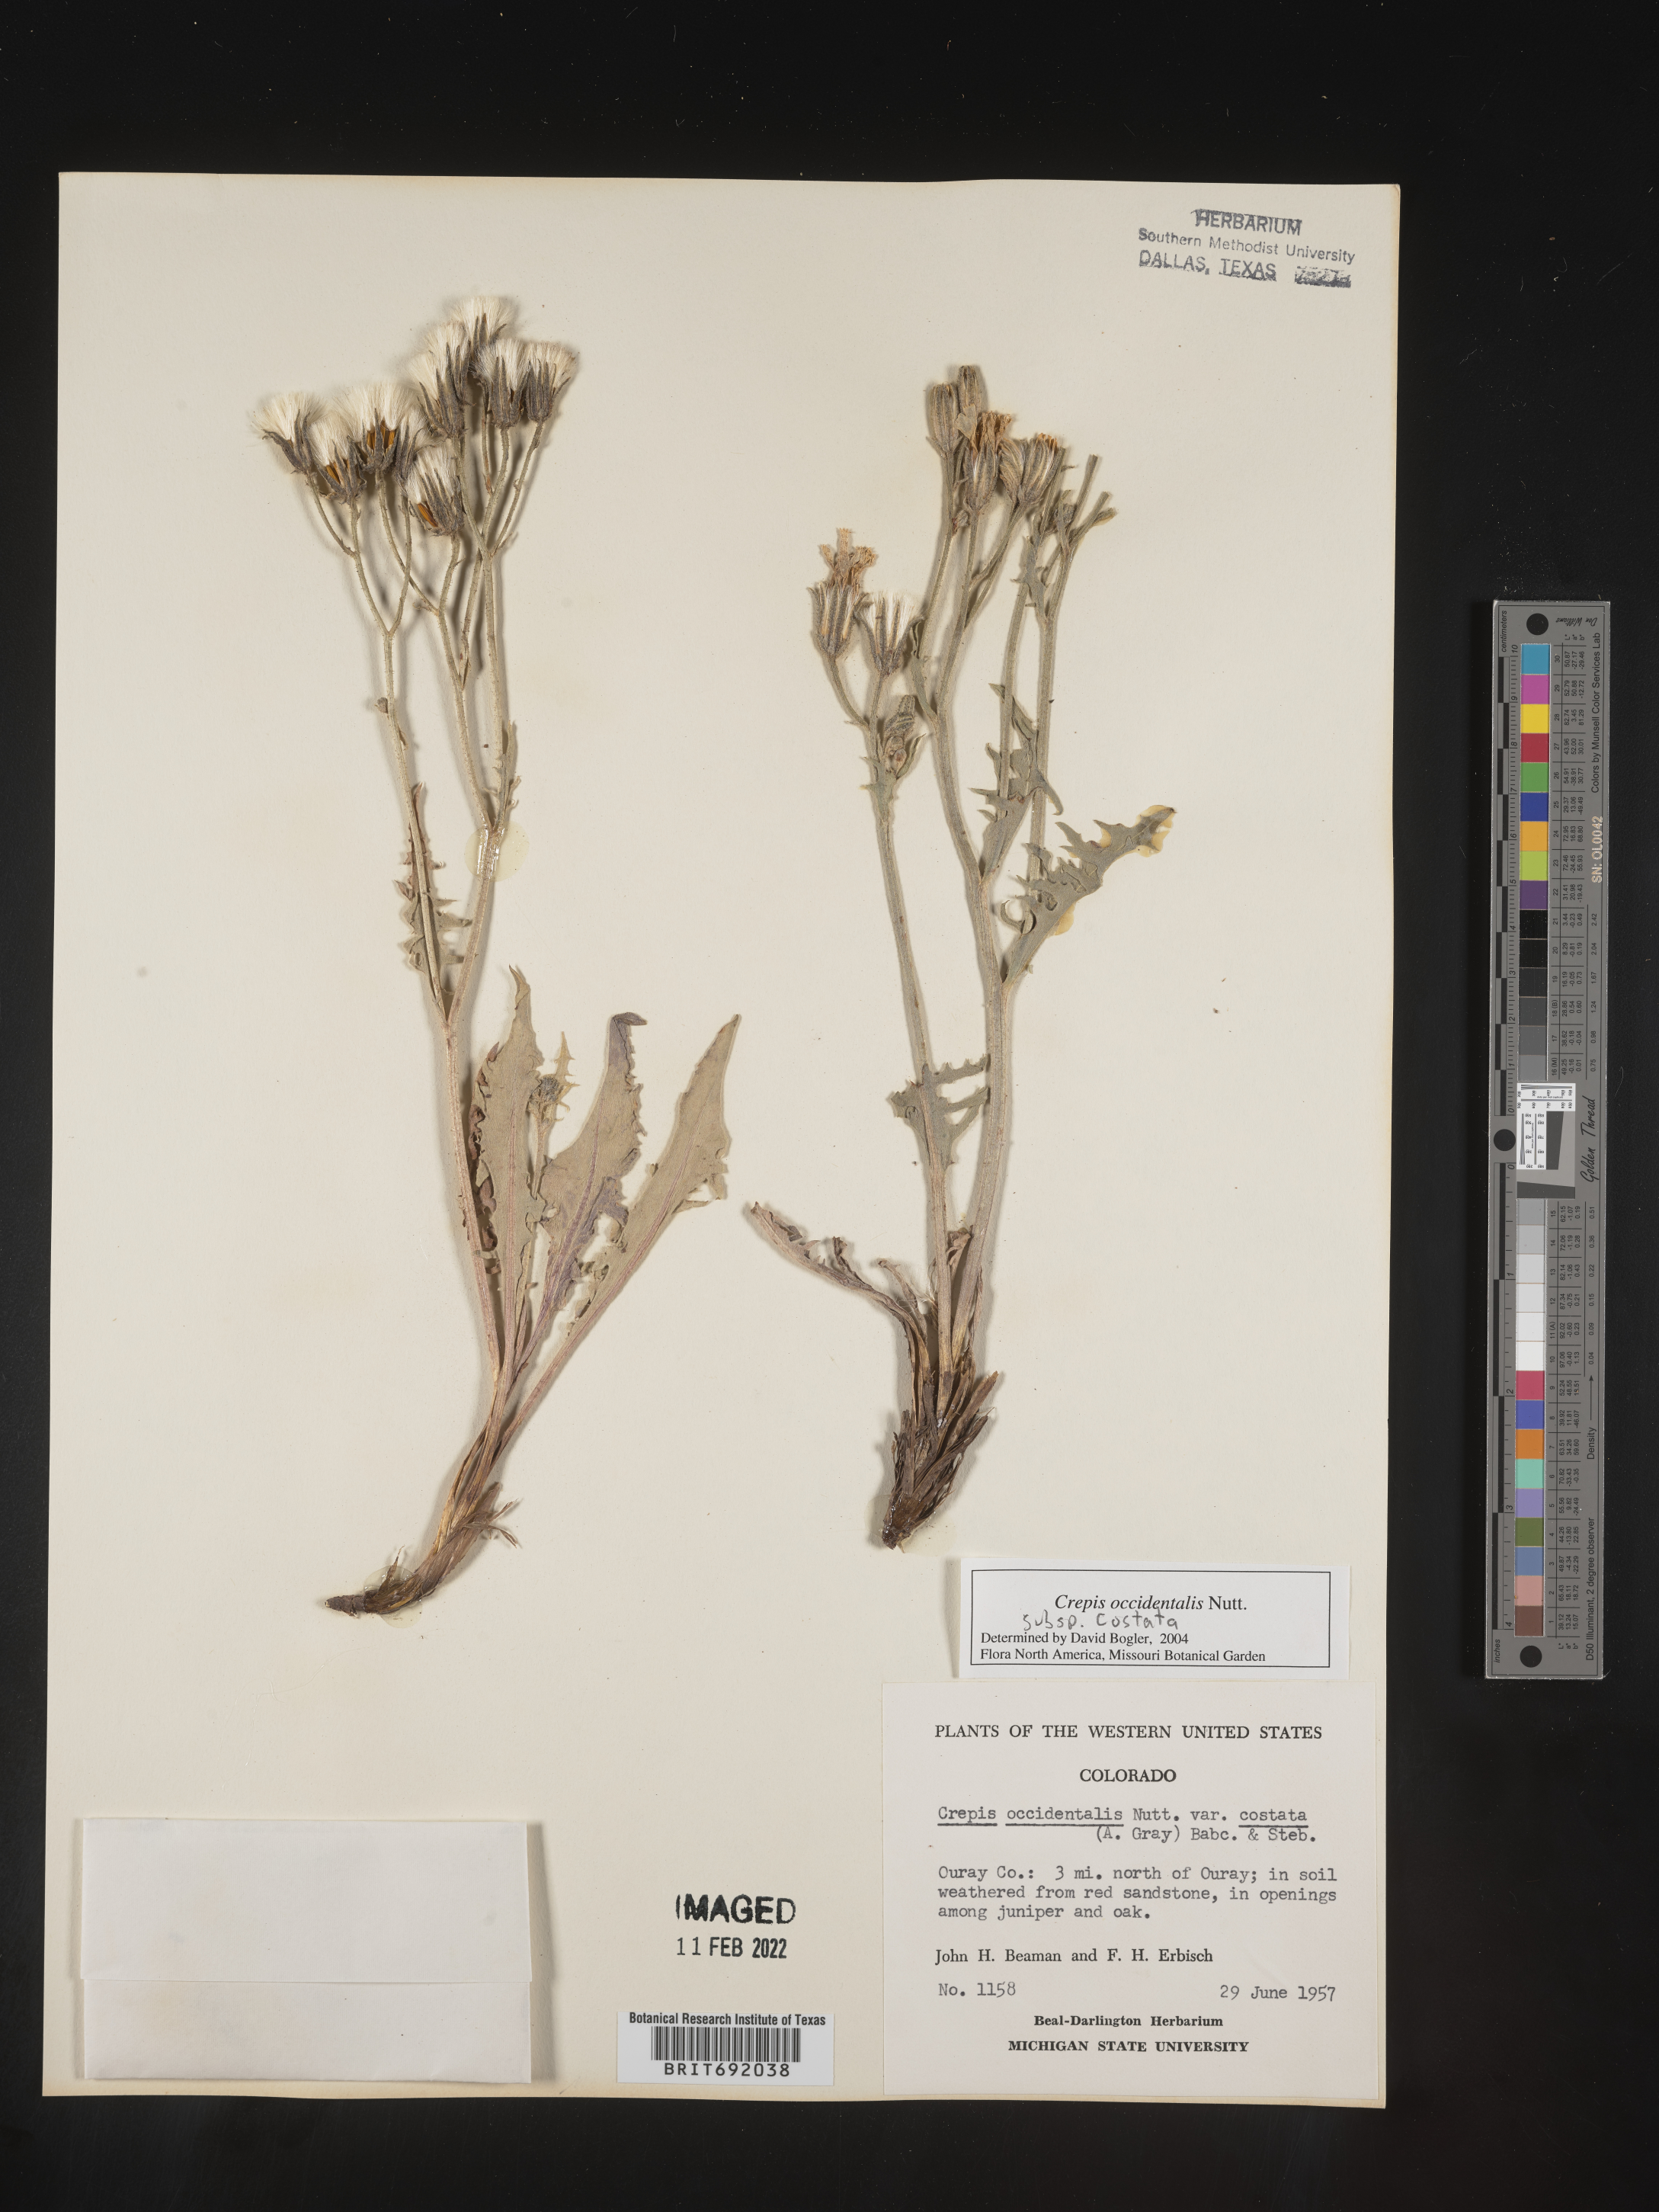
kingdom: Plantae
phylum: Tracheophyta
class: Magnoliopsida
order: Asterales
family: Asteraceae
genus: Crepis
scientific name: Crepis occidentalis
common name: Gray hawk's-beard
